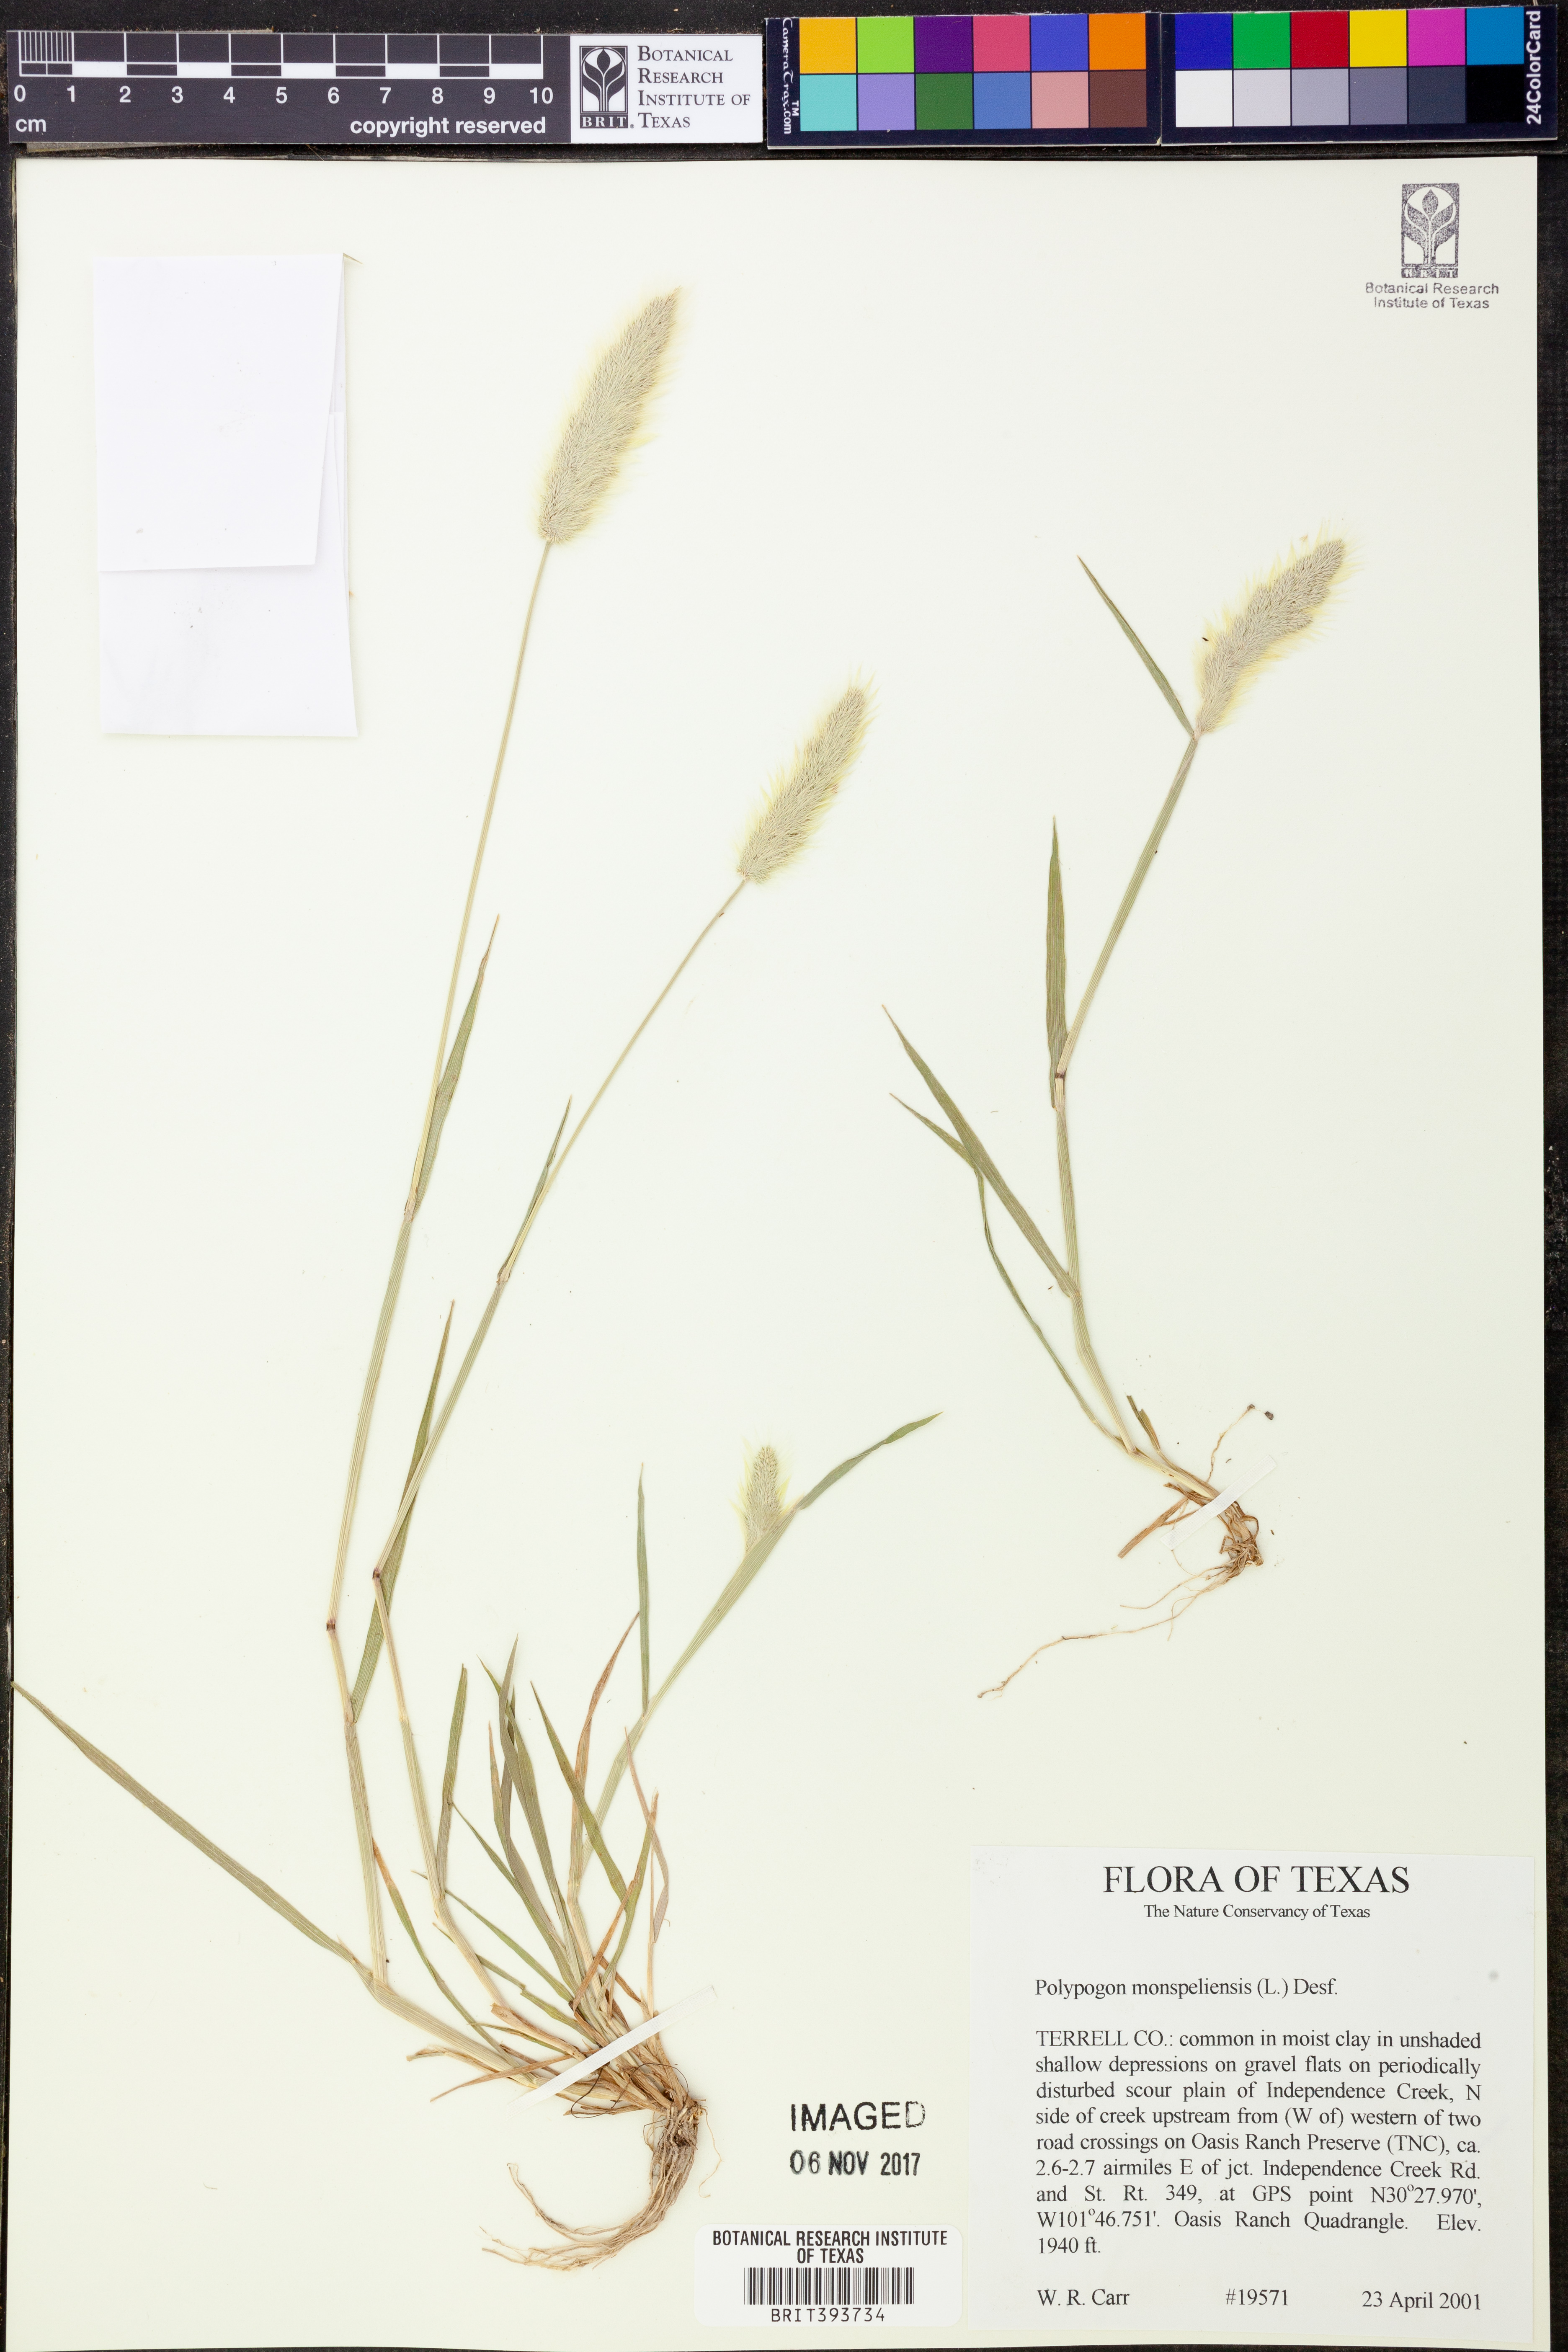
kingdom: Plantae
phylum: Tracheophyta
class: Liliopsida
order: Poales
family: Poaceae
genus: Polypogon
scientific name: Polypogon monspeliensis
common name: Annual rabbitsfoot grass
